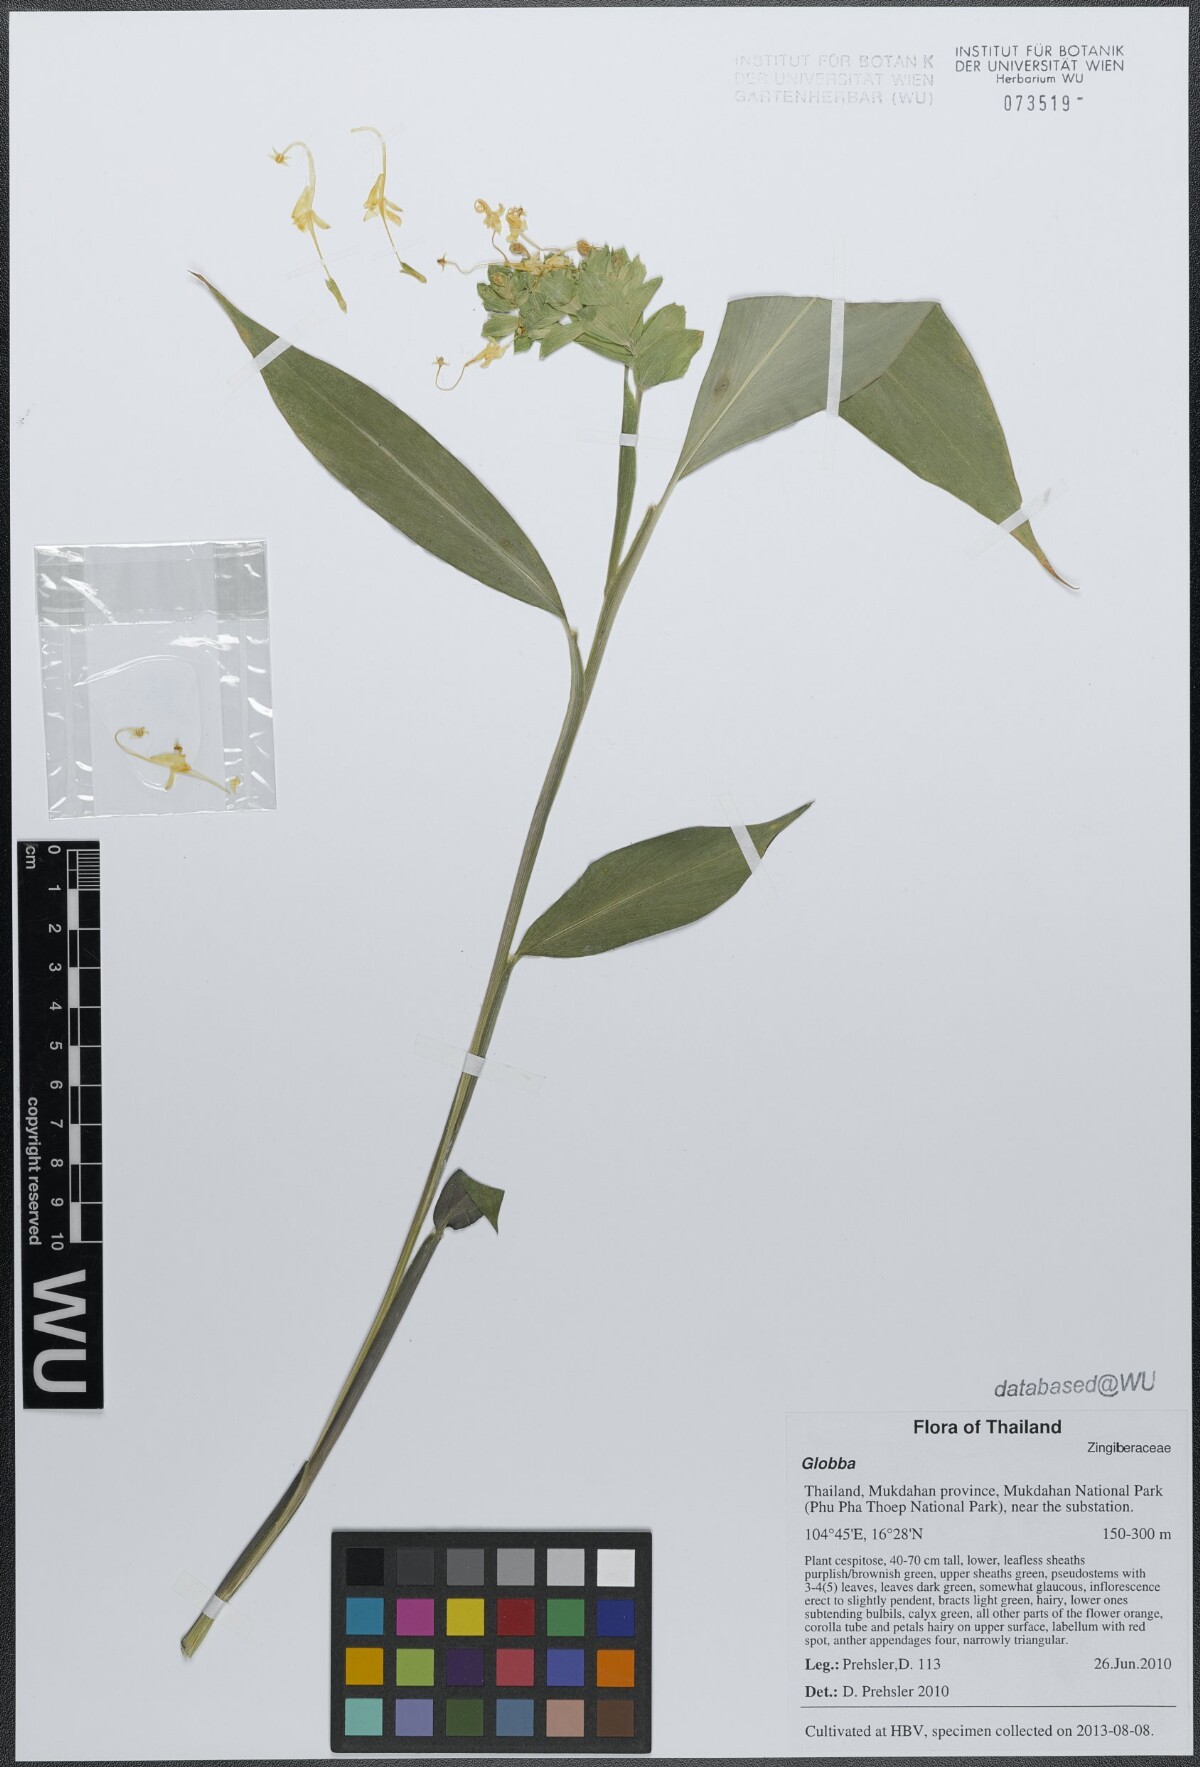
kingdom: Plantae
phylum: Tracheophyta
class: Liliopsida
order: Zingiberales
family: Zingiberaceae
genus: Globba
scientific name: Globba
